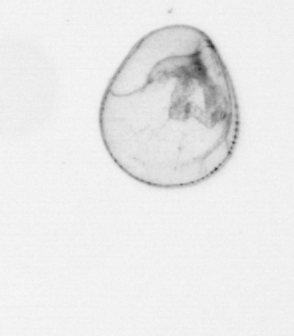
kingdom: Chromista
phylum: Myzozoa
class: Dinophyceae
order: Noctilucales
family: Noctilucaceae
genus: Noctiluca
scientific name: Noctiluca scintillans
